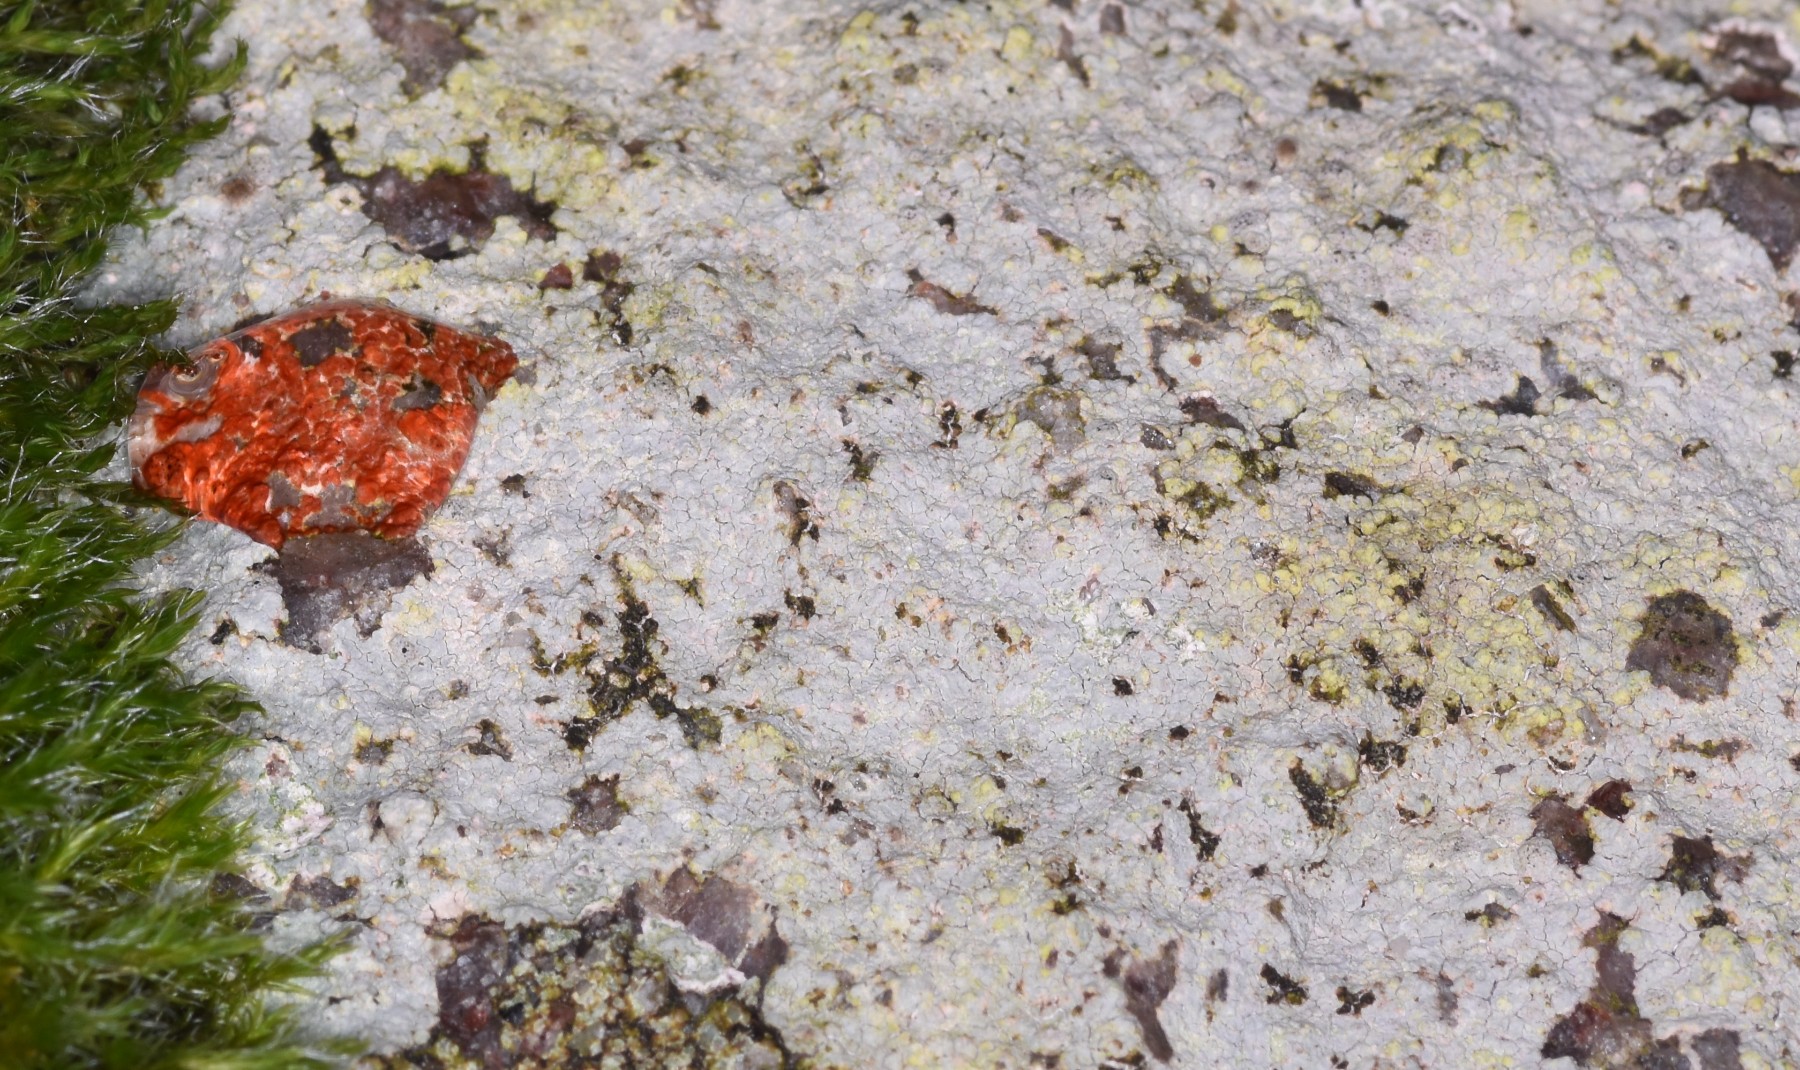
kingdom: Fungi
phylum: Ascomycota
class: Lecanoromycetes
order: Baeomycetales
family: Trapeliaceae
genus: Kleopowiella
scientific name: Kleopowiella placodioides
